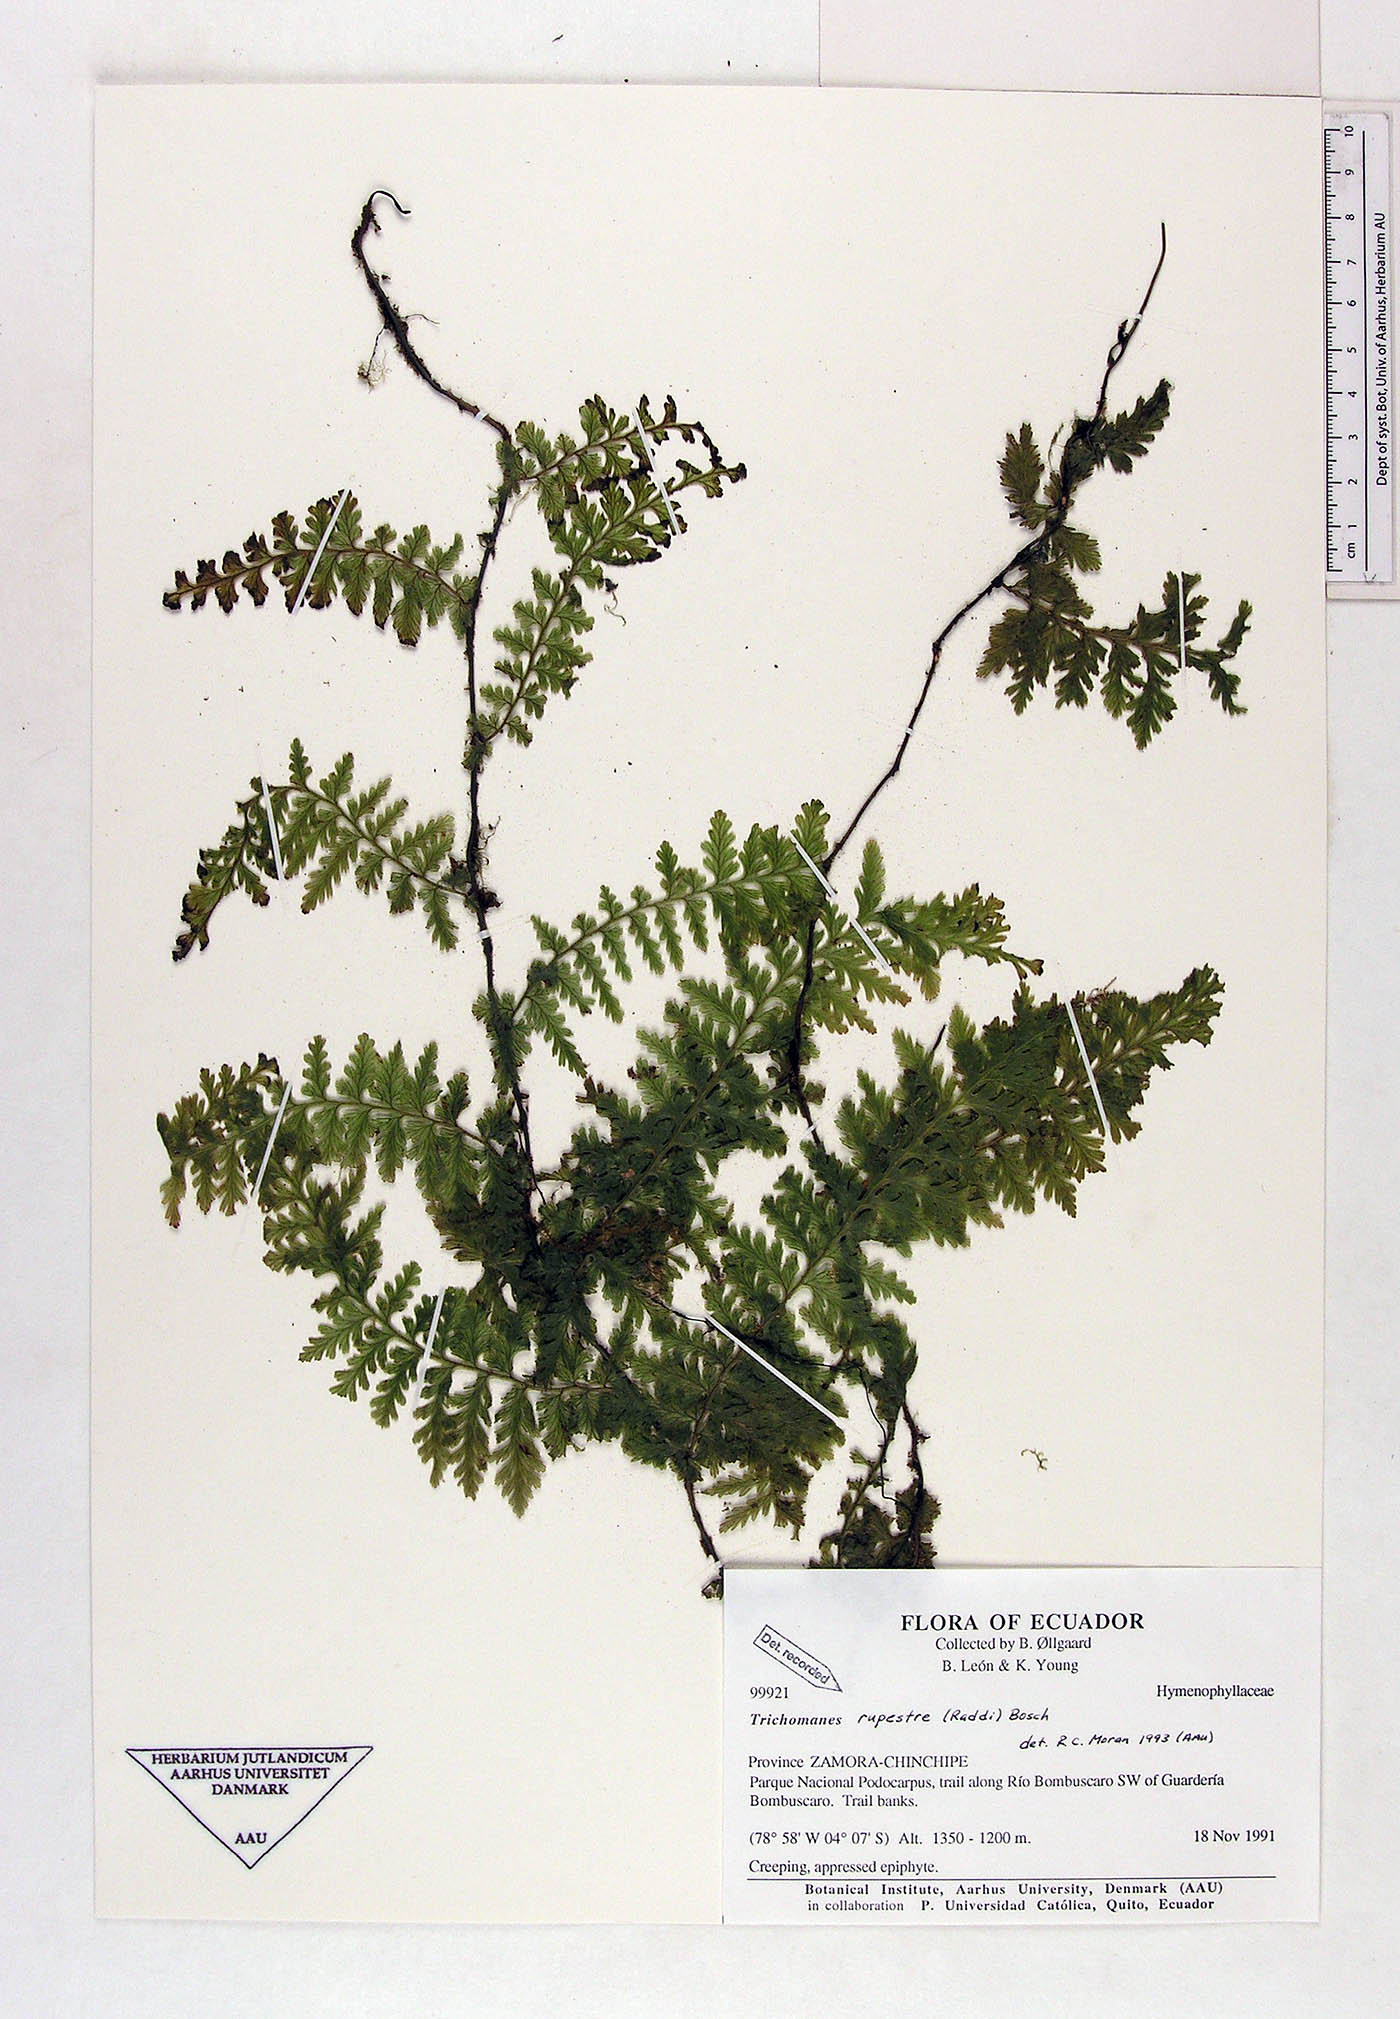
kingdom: Plantae
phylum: Tracheophyta
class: Polypodiopsida
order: Hymenophyllales
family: Hymenophyllaceae
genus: Vandenboschia
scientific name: Vandenboschia rupestris
